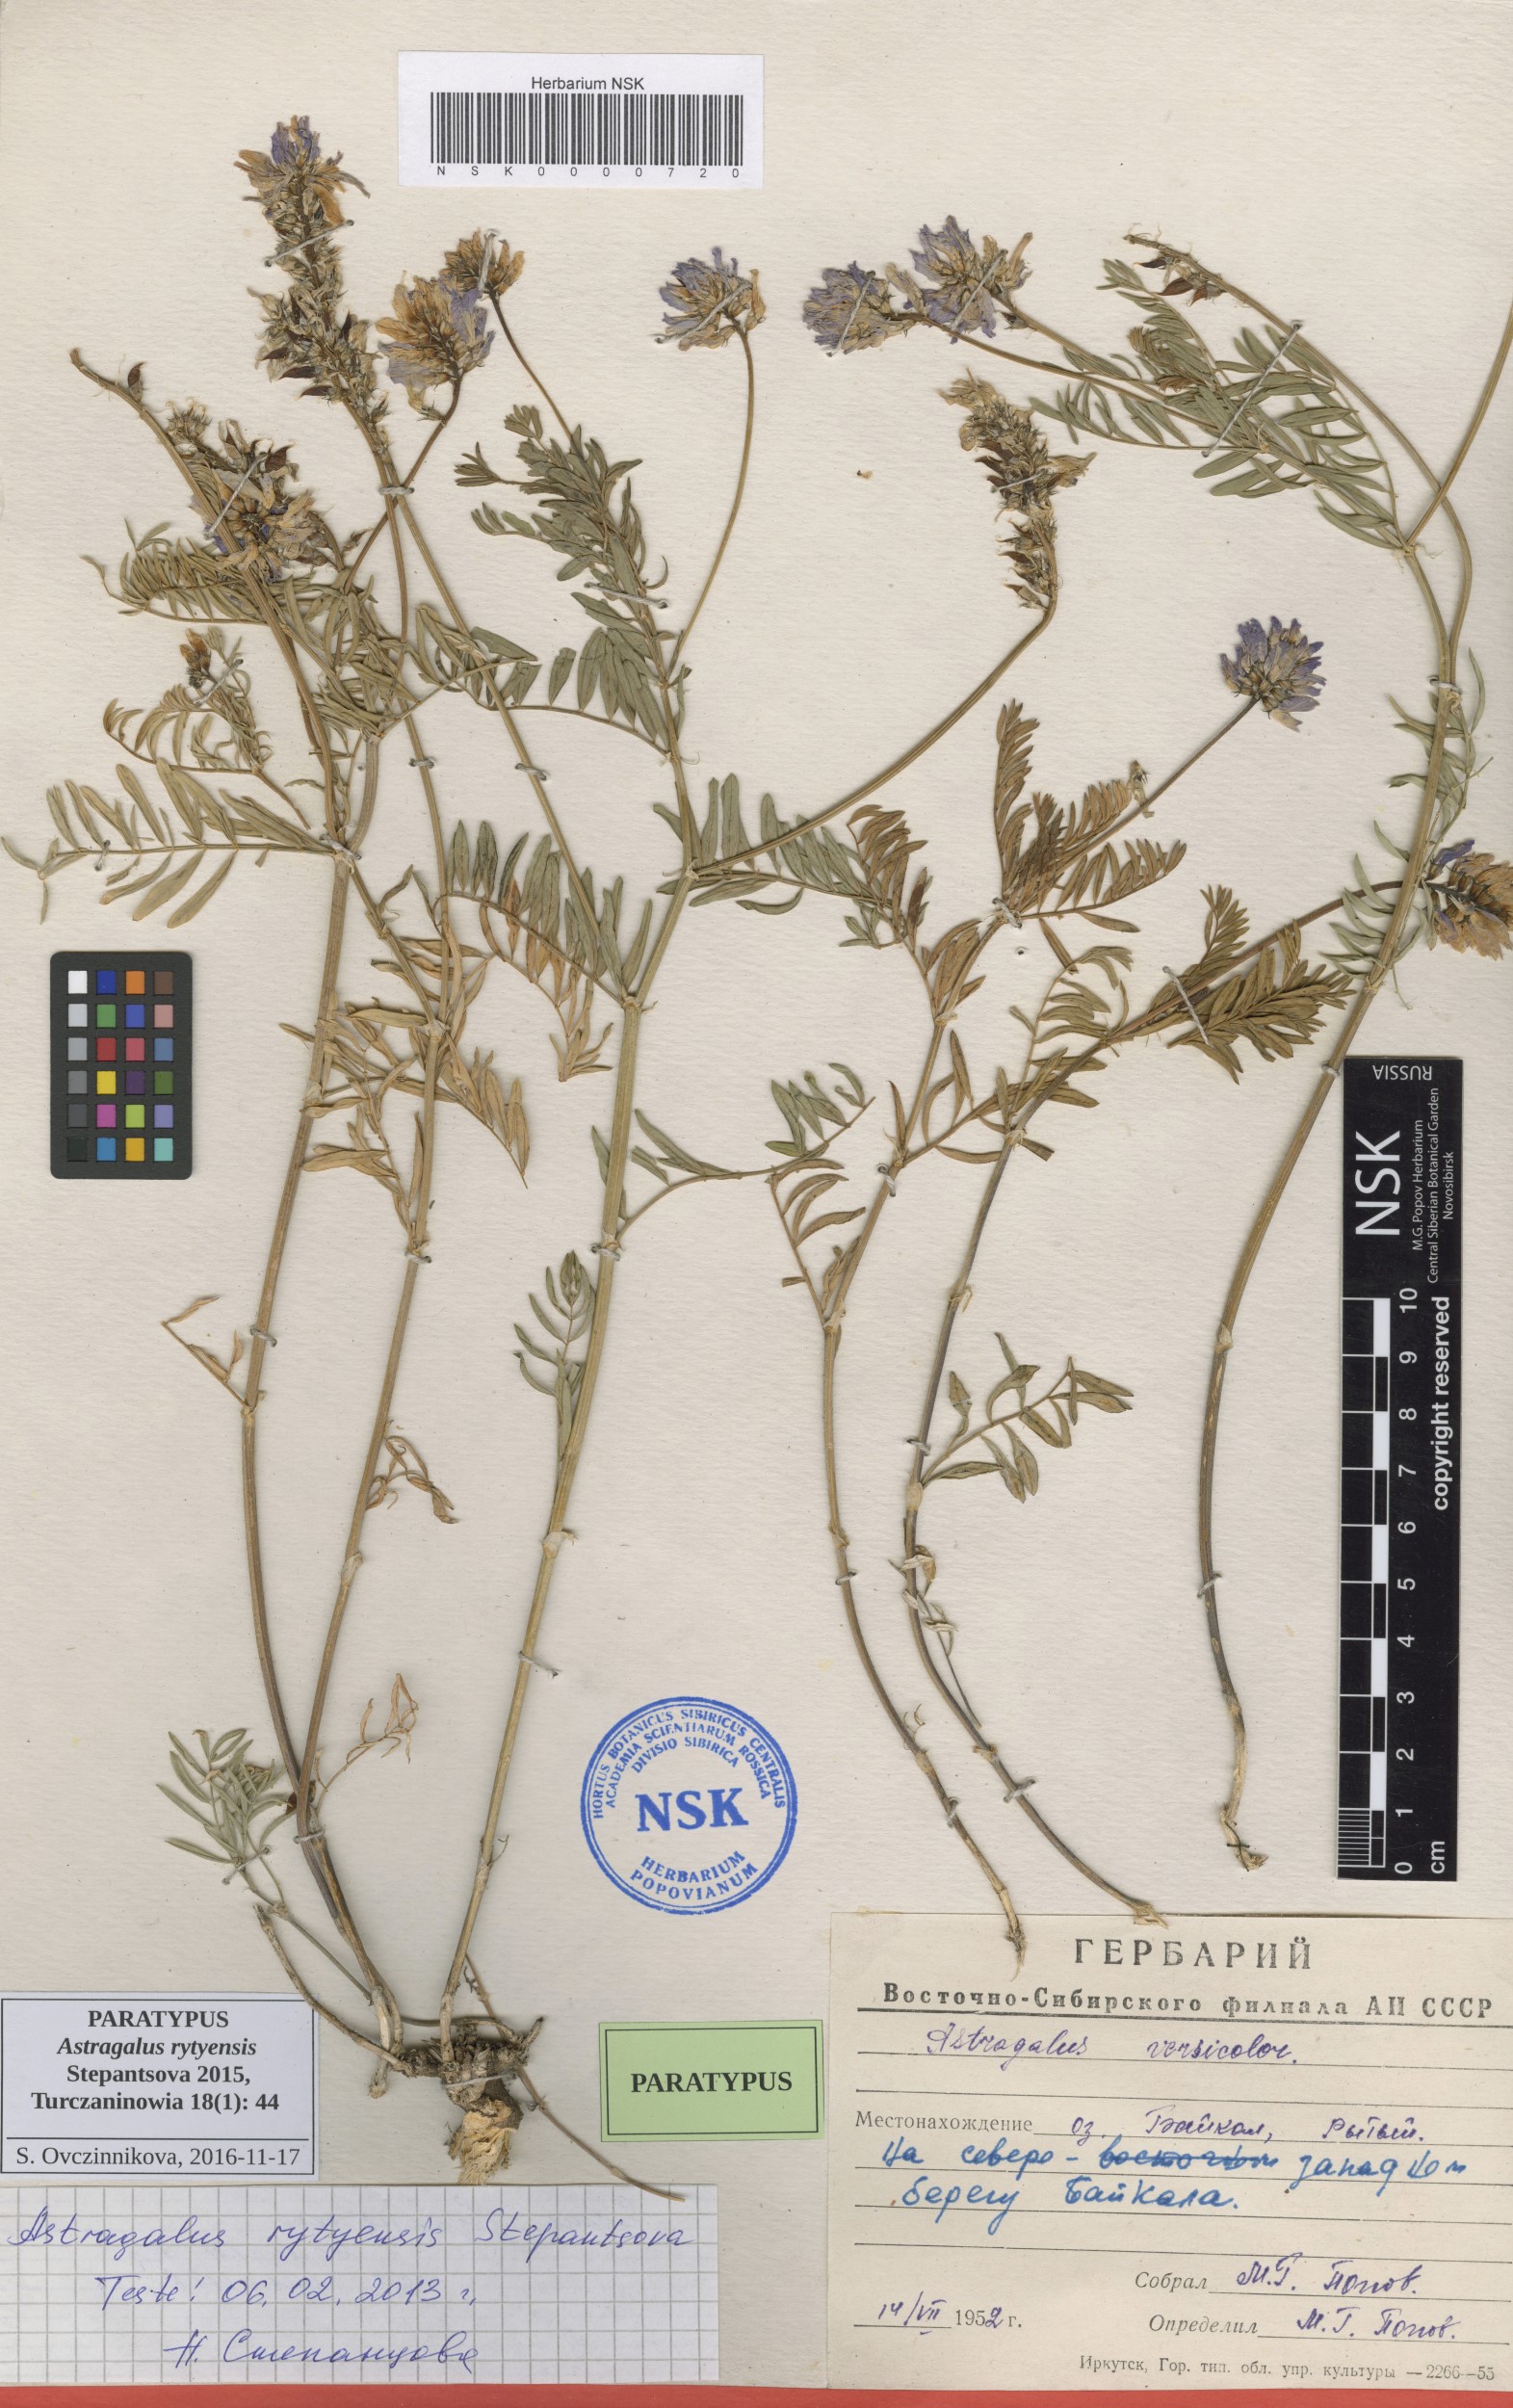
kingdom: Plantae
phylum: Tracheophyta
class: Magnoliopsida
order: Fabales
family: Fabaceae
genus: Astragalus
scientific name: Astragalus rytyensis
